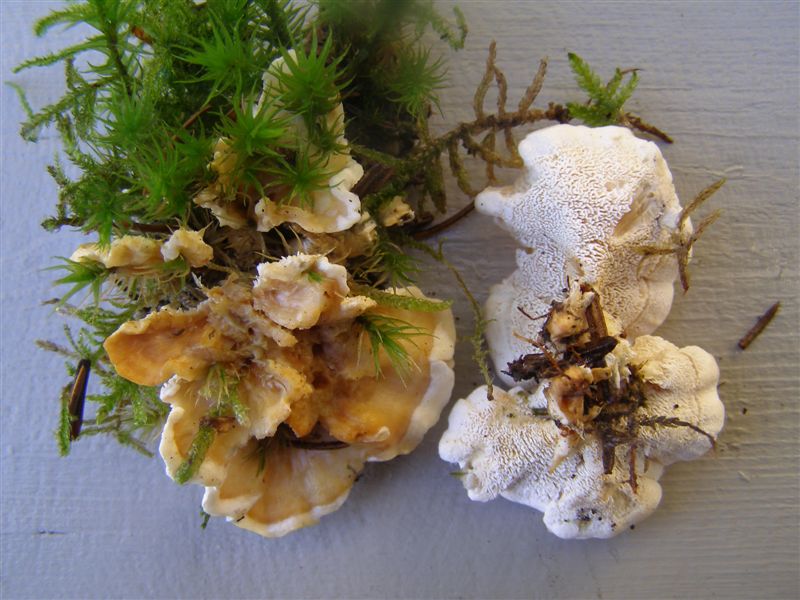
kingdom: Fungi
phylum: Basidiomycota
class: Agaricomycetes
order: Cantharellales
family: Hydnaceae
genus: Sistotrema
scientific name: Sistotrema confluens
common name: stilket kroneskorpe
